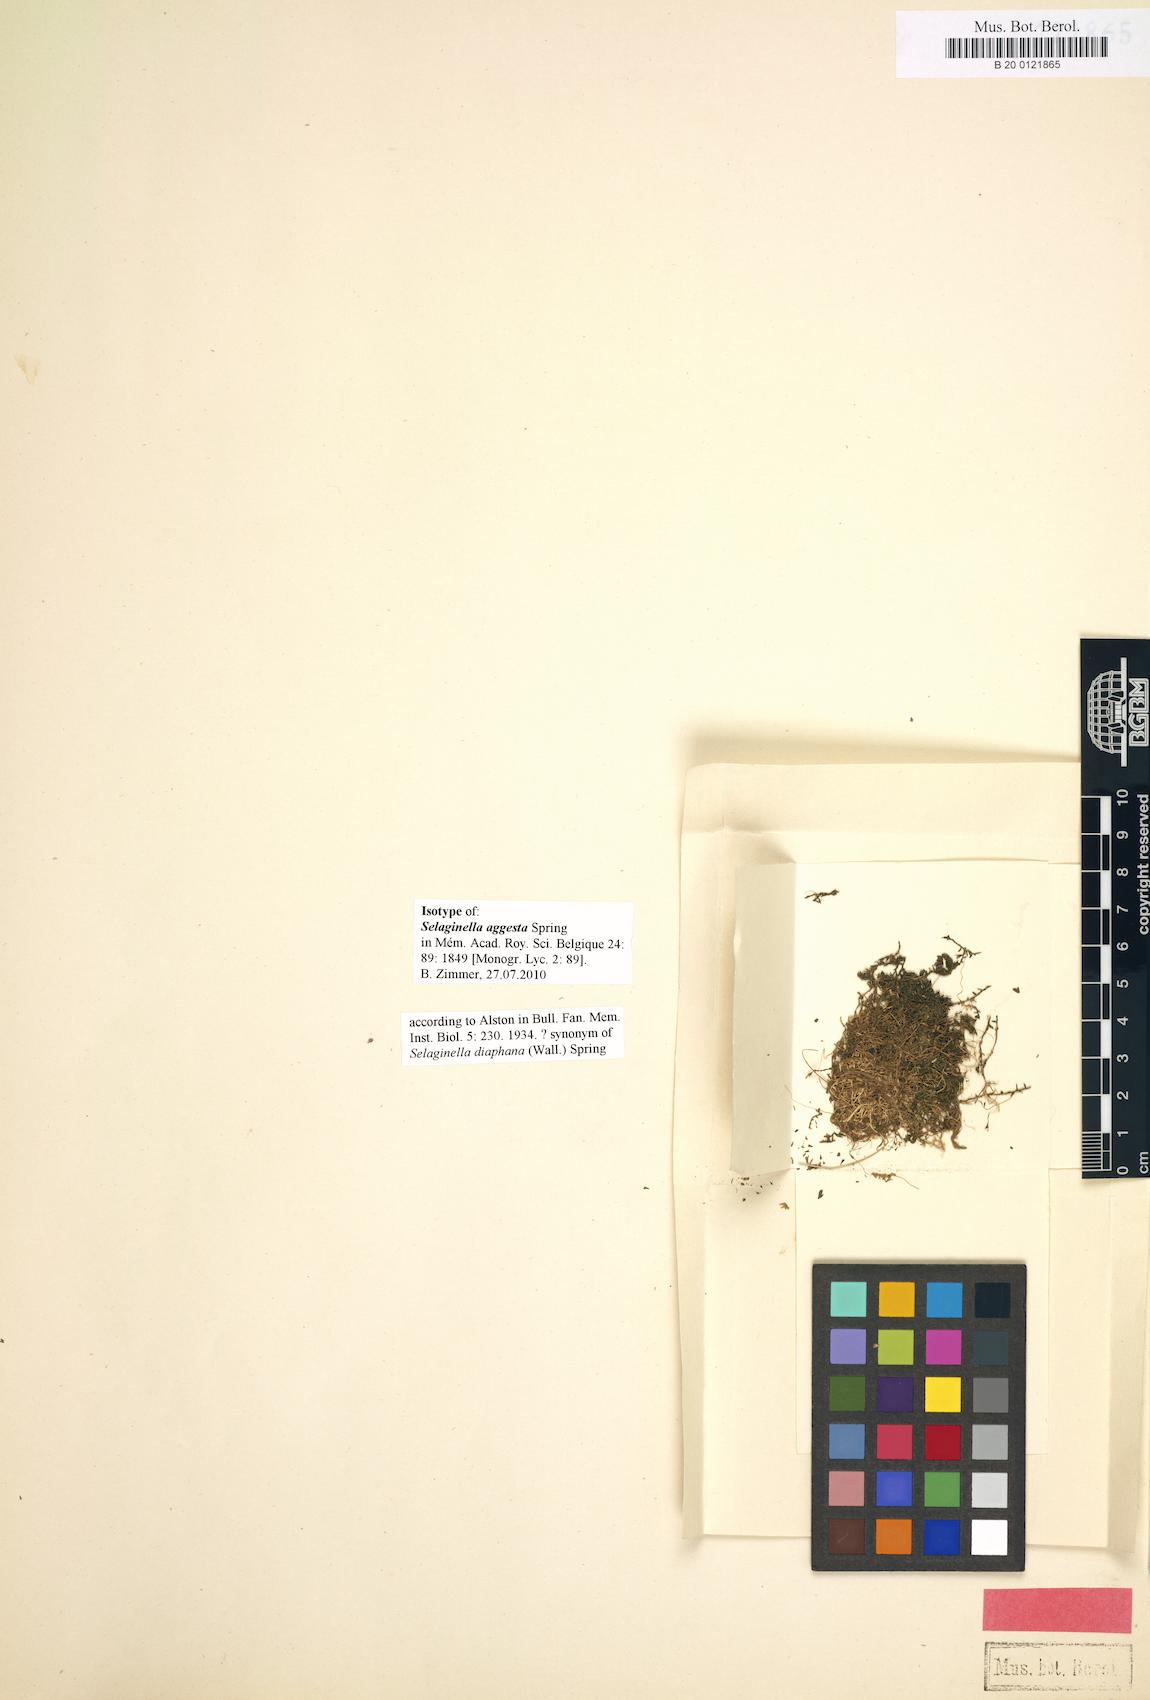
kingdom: Plantae
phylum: Tracheophyta
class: Lycopodiopsida
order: Selaginellales
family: Selaginellaceae
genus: Selaginella
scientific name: Selaginella subdiaphana
